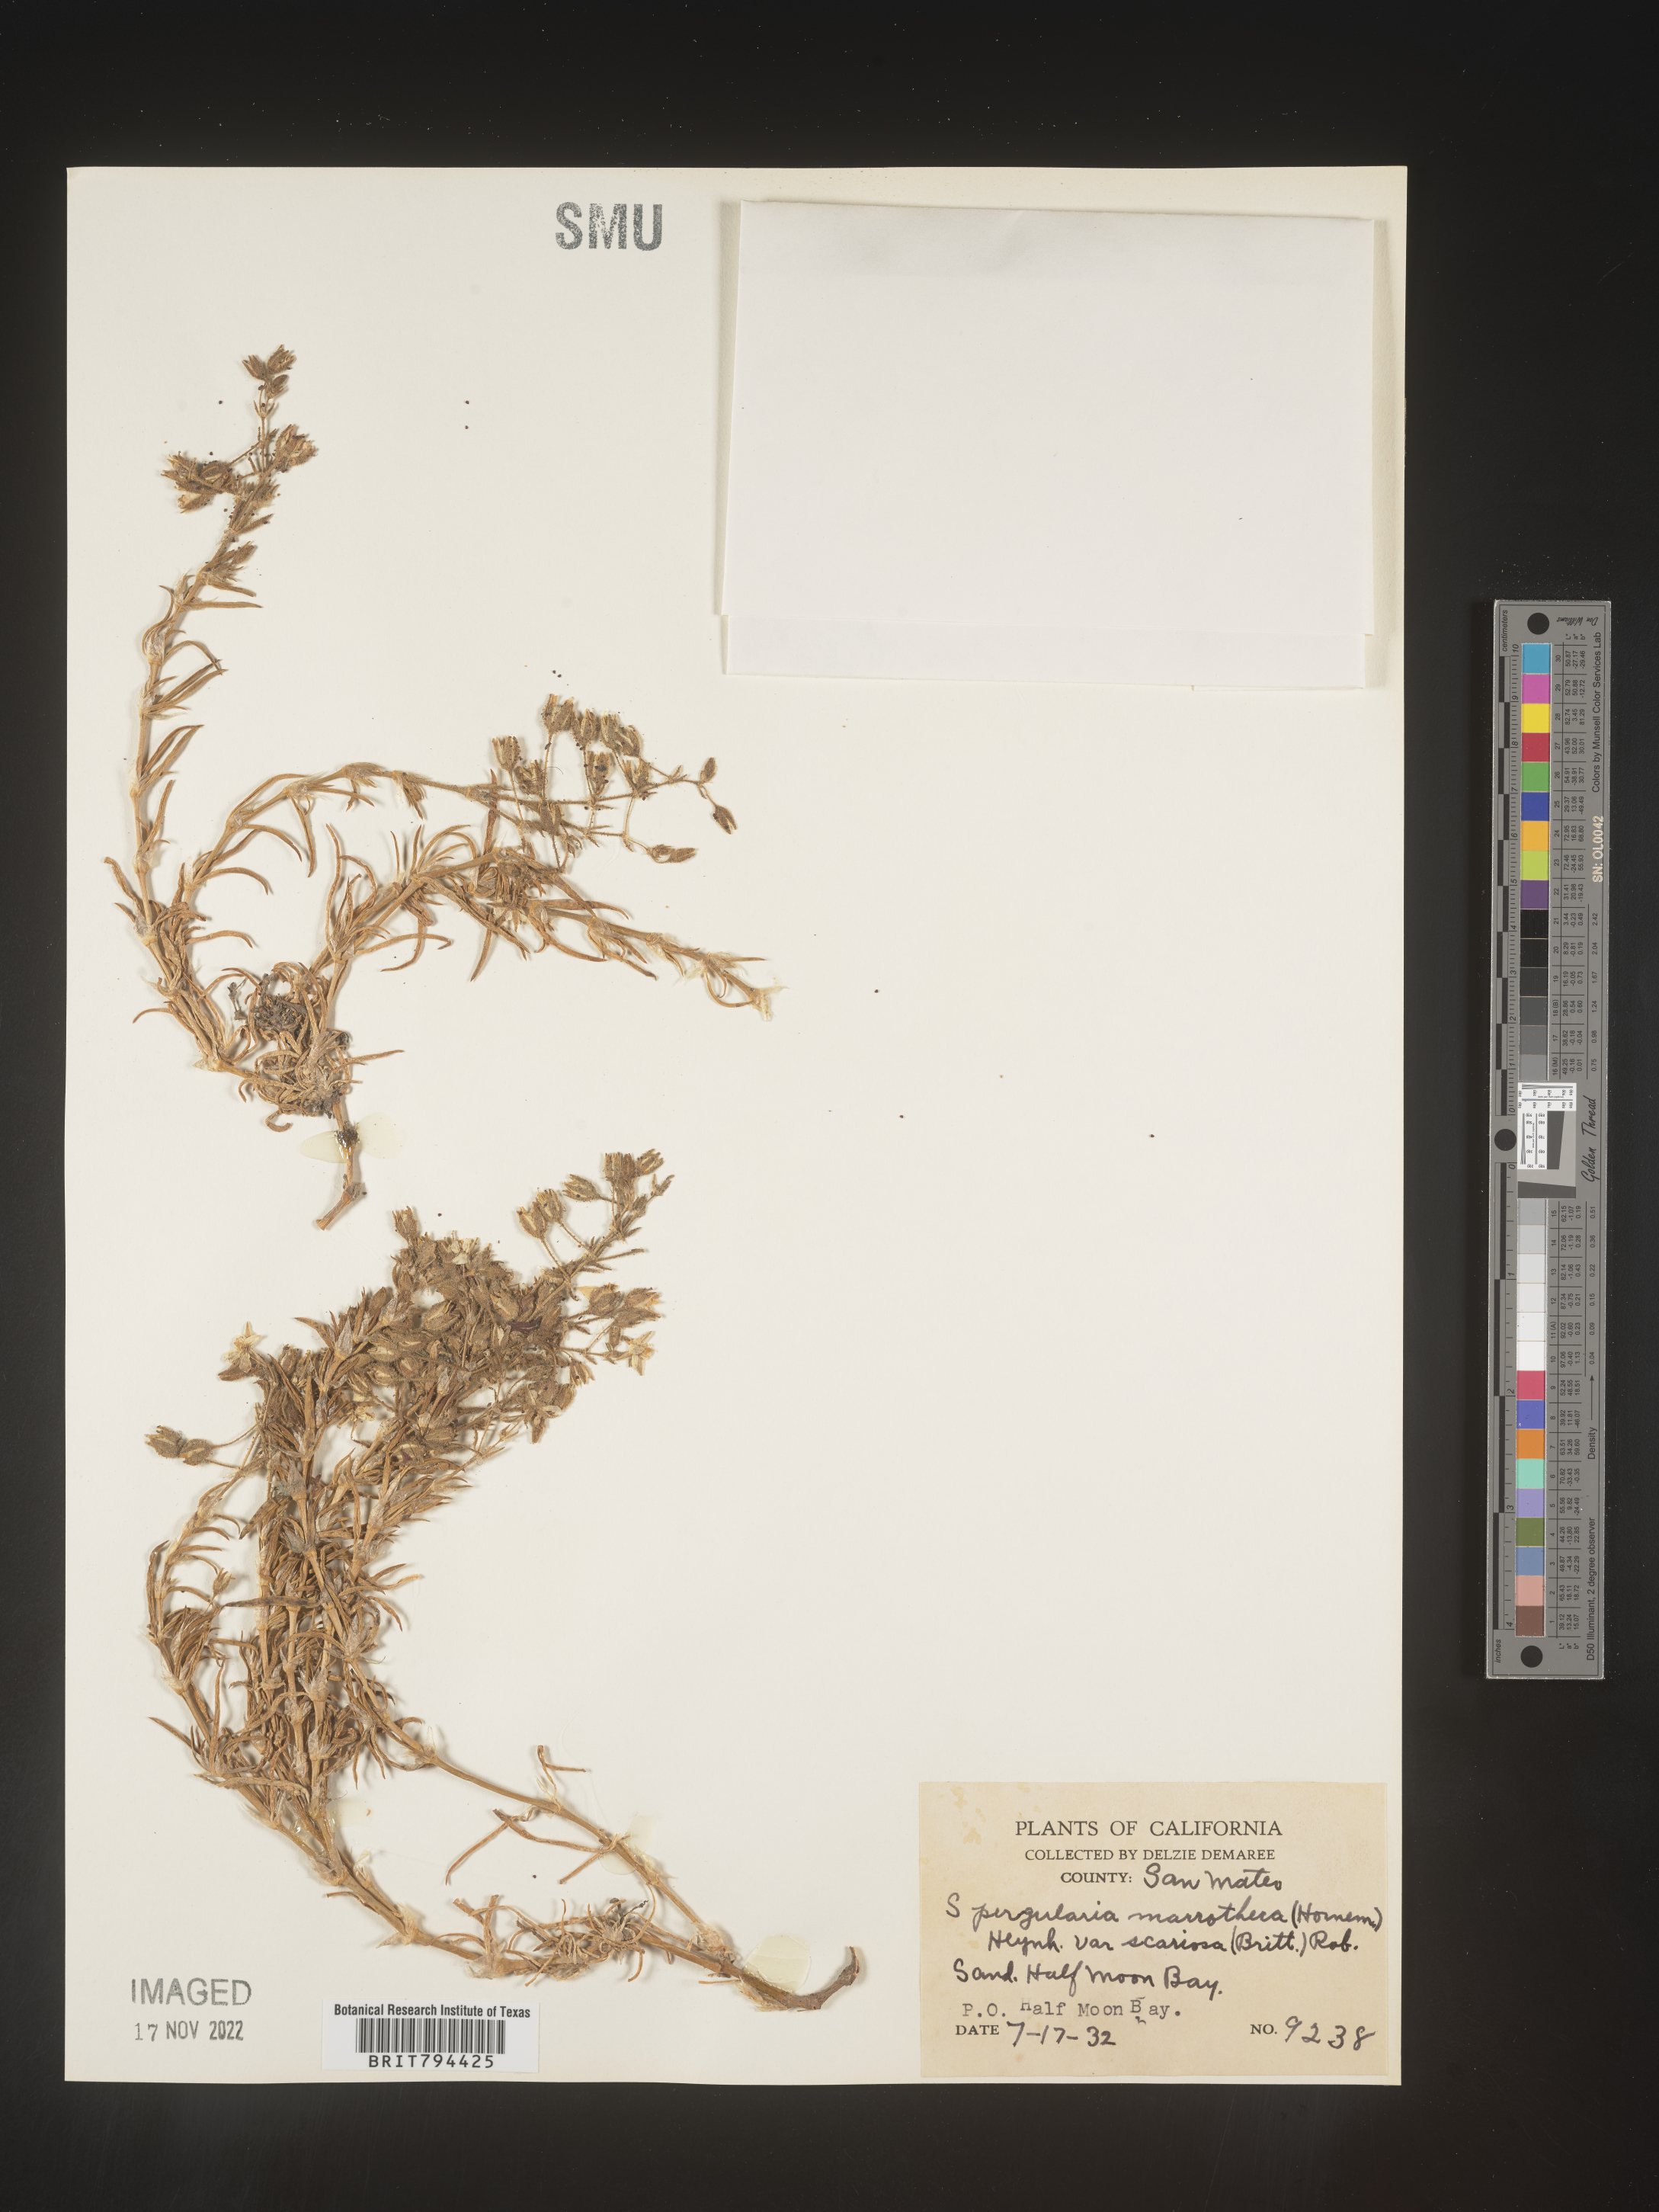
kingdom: Plantae
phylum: Tracheophyta
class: Magnoliopsida
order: Caryophyllales
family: Caryophyllaceae
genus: Spergularia
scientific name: Spergularia macrotheca
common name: Beach sand-spurrey
